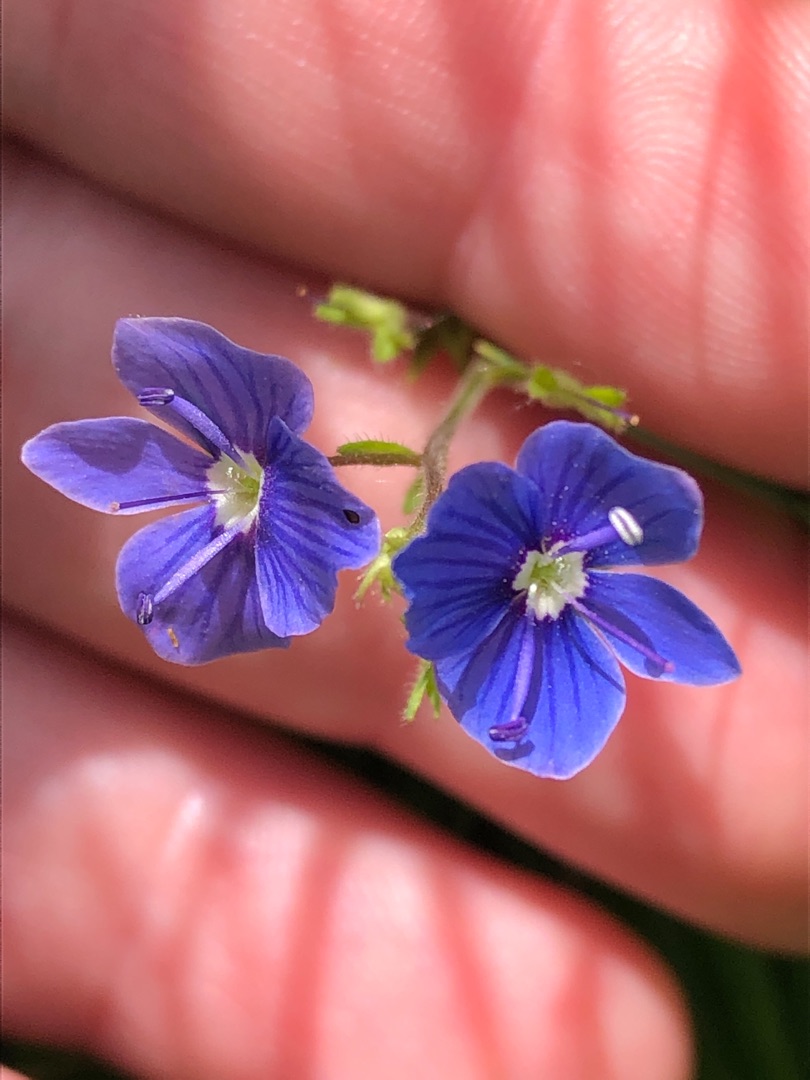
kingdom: Plantae
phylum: Tracheophyta
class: Magnoliopsida
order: Lamiales
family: Plantaginaceae
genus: Veronica
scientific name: Veronica chamaedrys
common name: Tveskægget ærenpris
